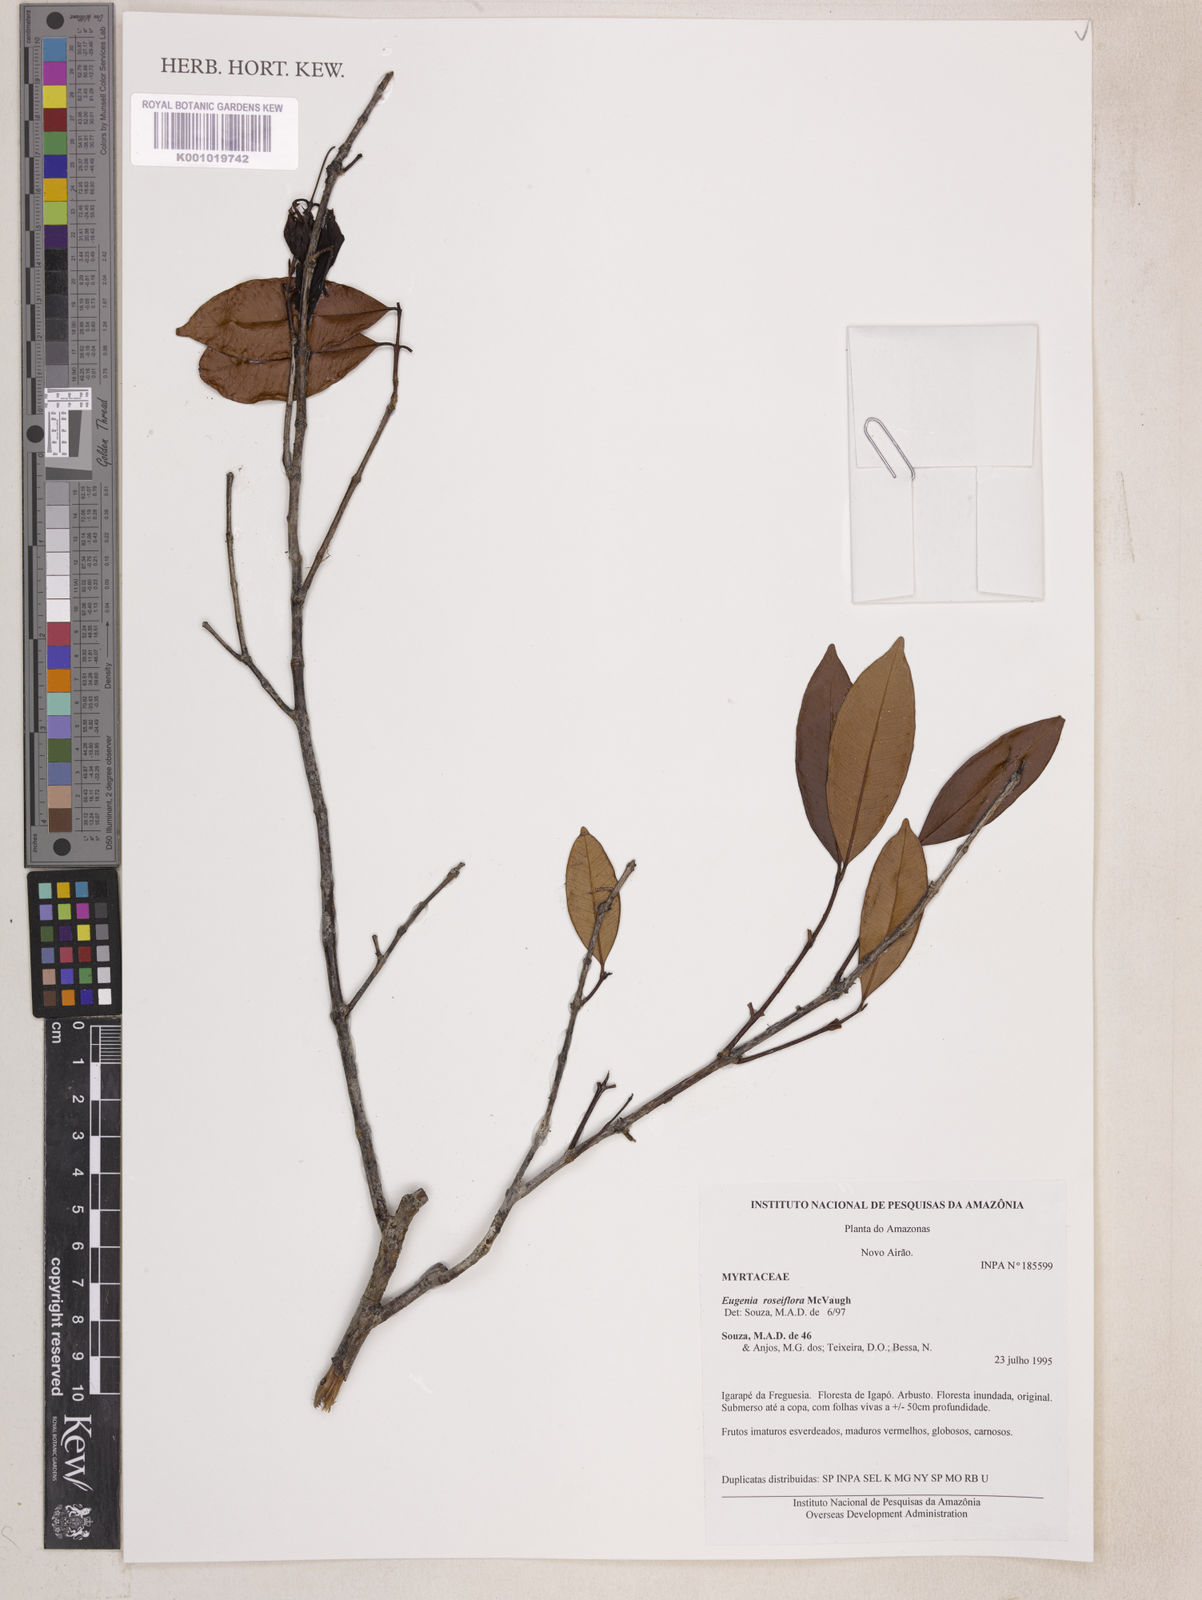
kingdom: Plantae
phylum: Tracheophyta
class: Magnoliopsida
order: Myrtales
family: Myrtaceae
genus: Eugenia
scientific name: Eugenia roseiflora
